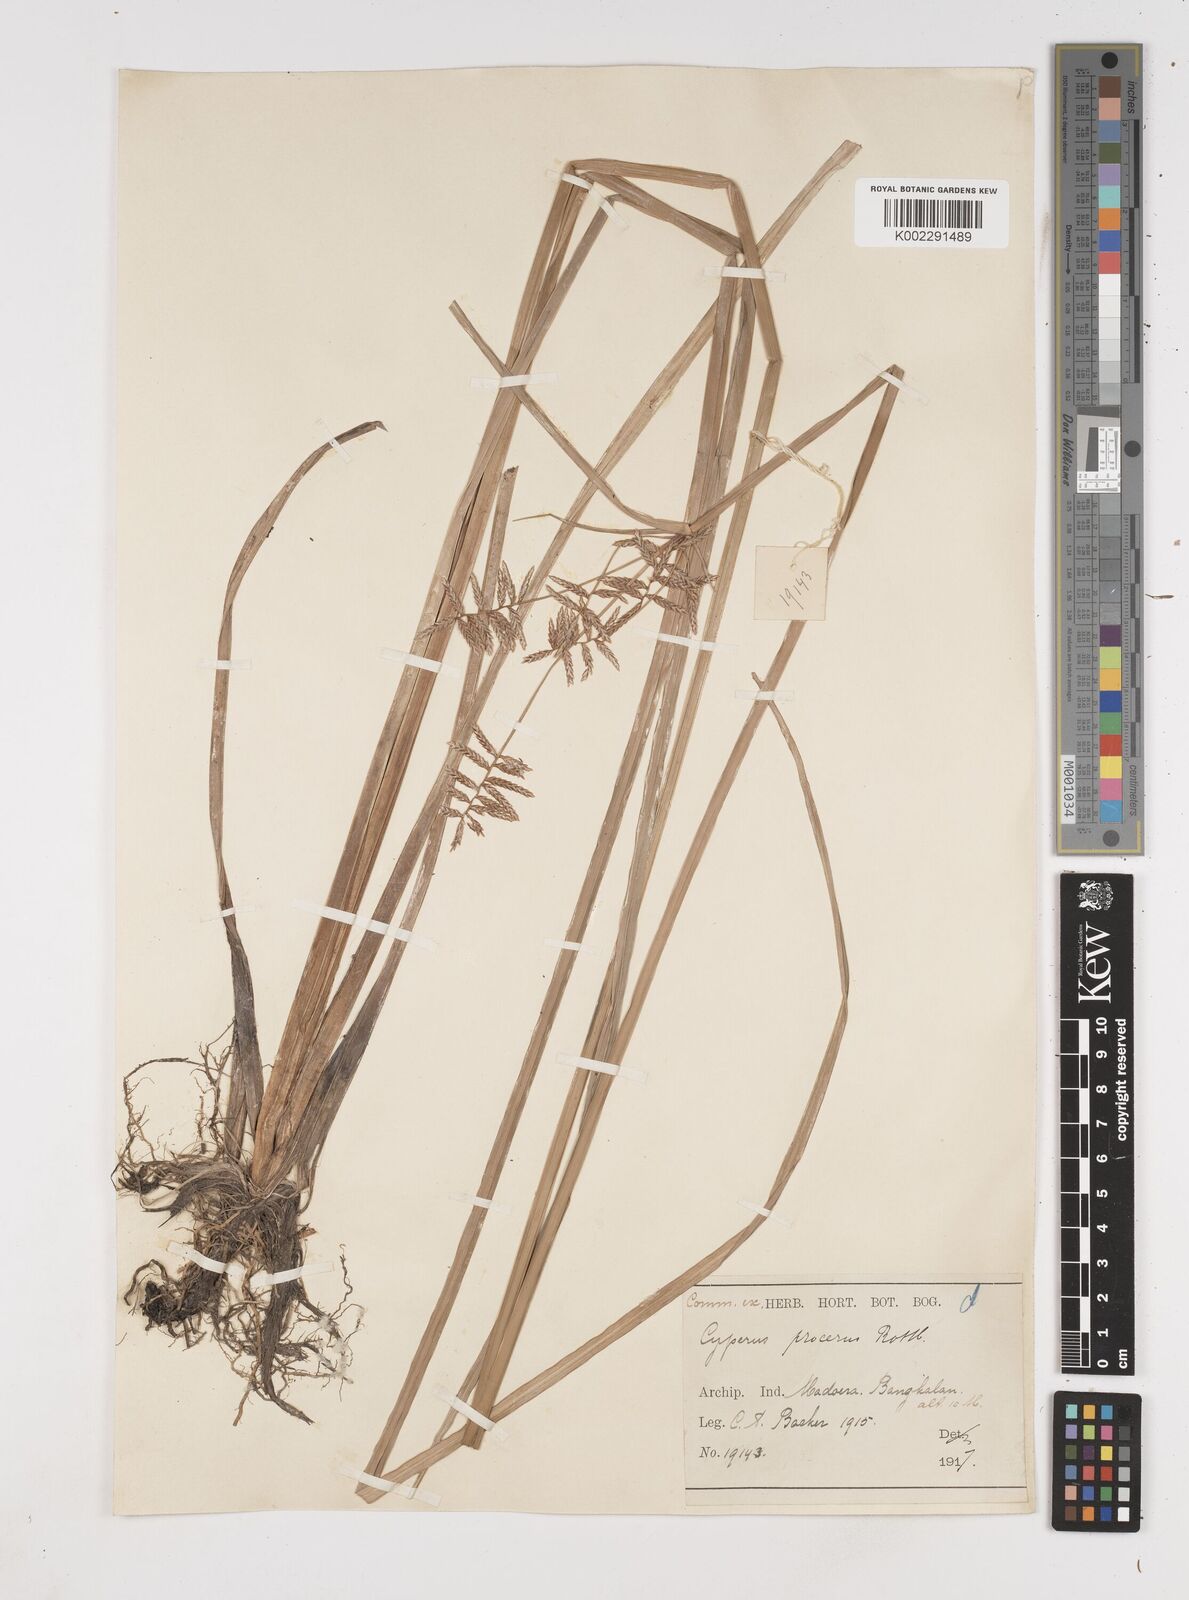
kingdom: Plantae
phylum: Tracheophyta
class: Liliopsida
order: Poales
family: Cyperaceae
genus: Cyperus
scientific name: Cyperus procerus
